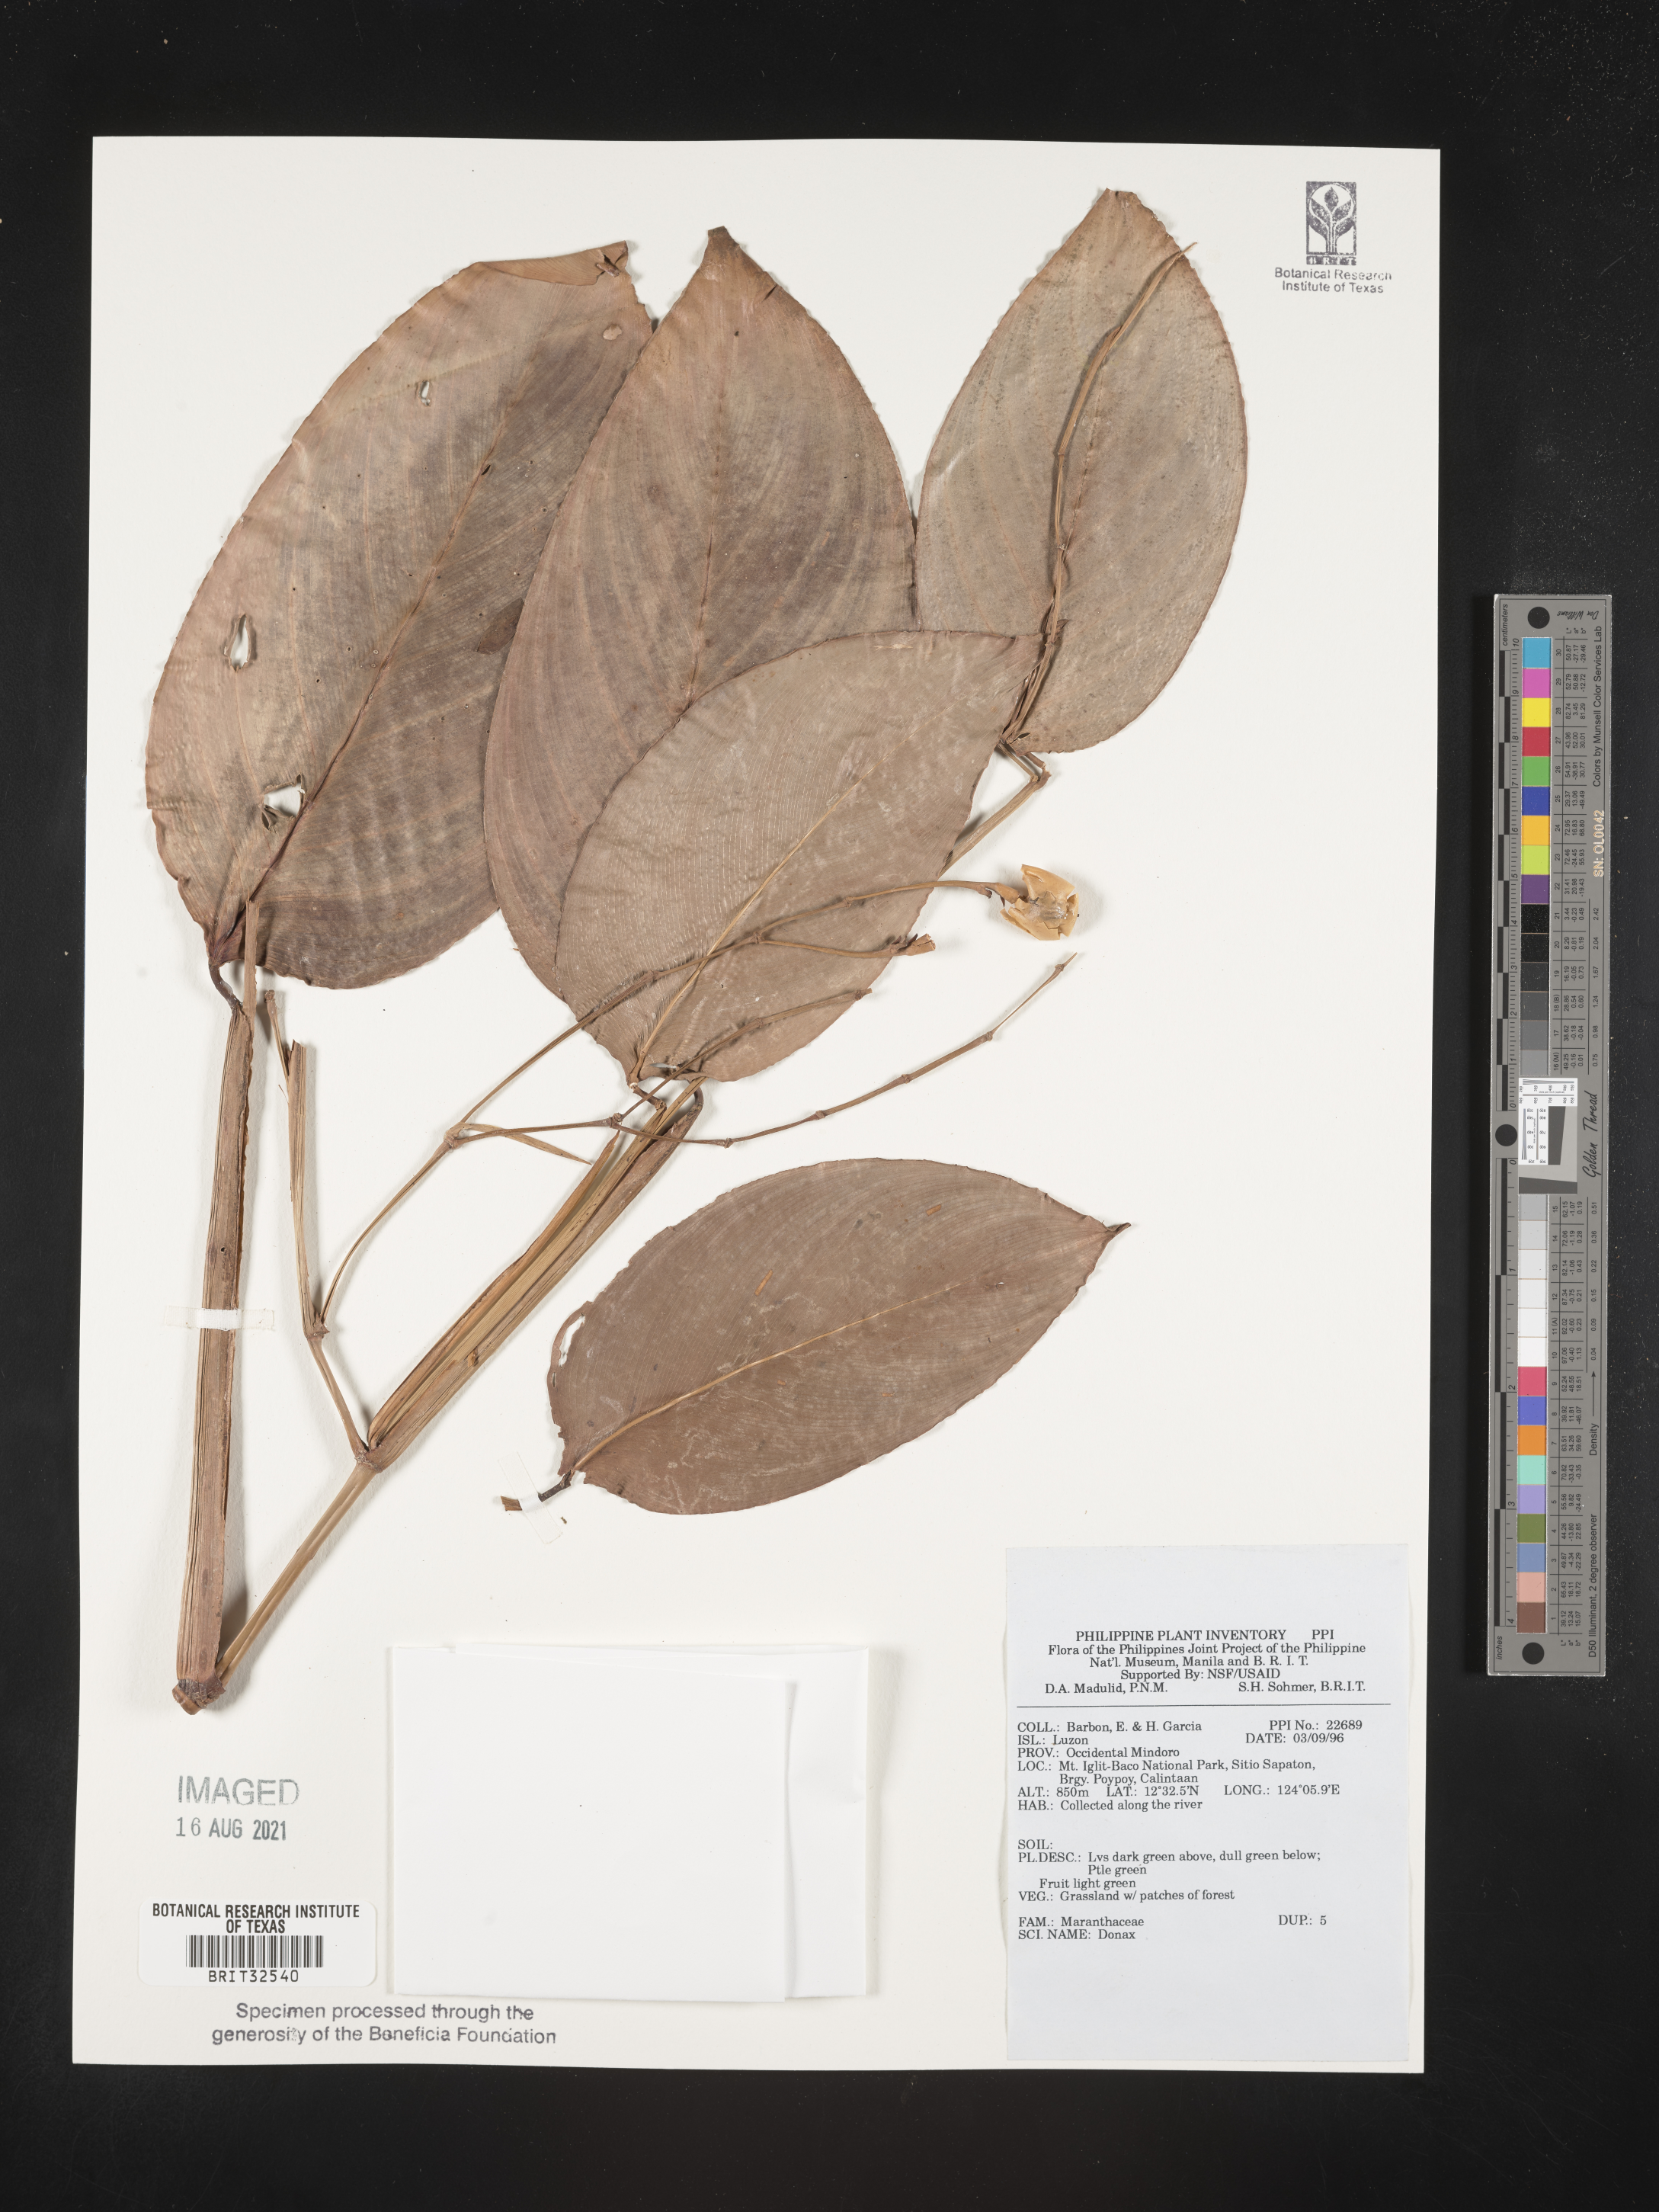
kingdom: Plantae
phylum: Tracheophyta
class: Liliopsida
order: Zingiberales
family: Marantaceae
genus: Donax
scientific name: Donax
